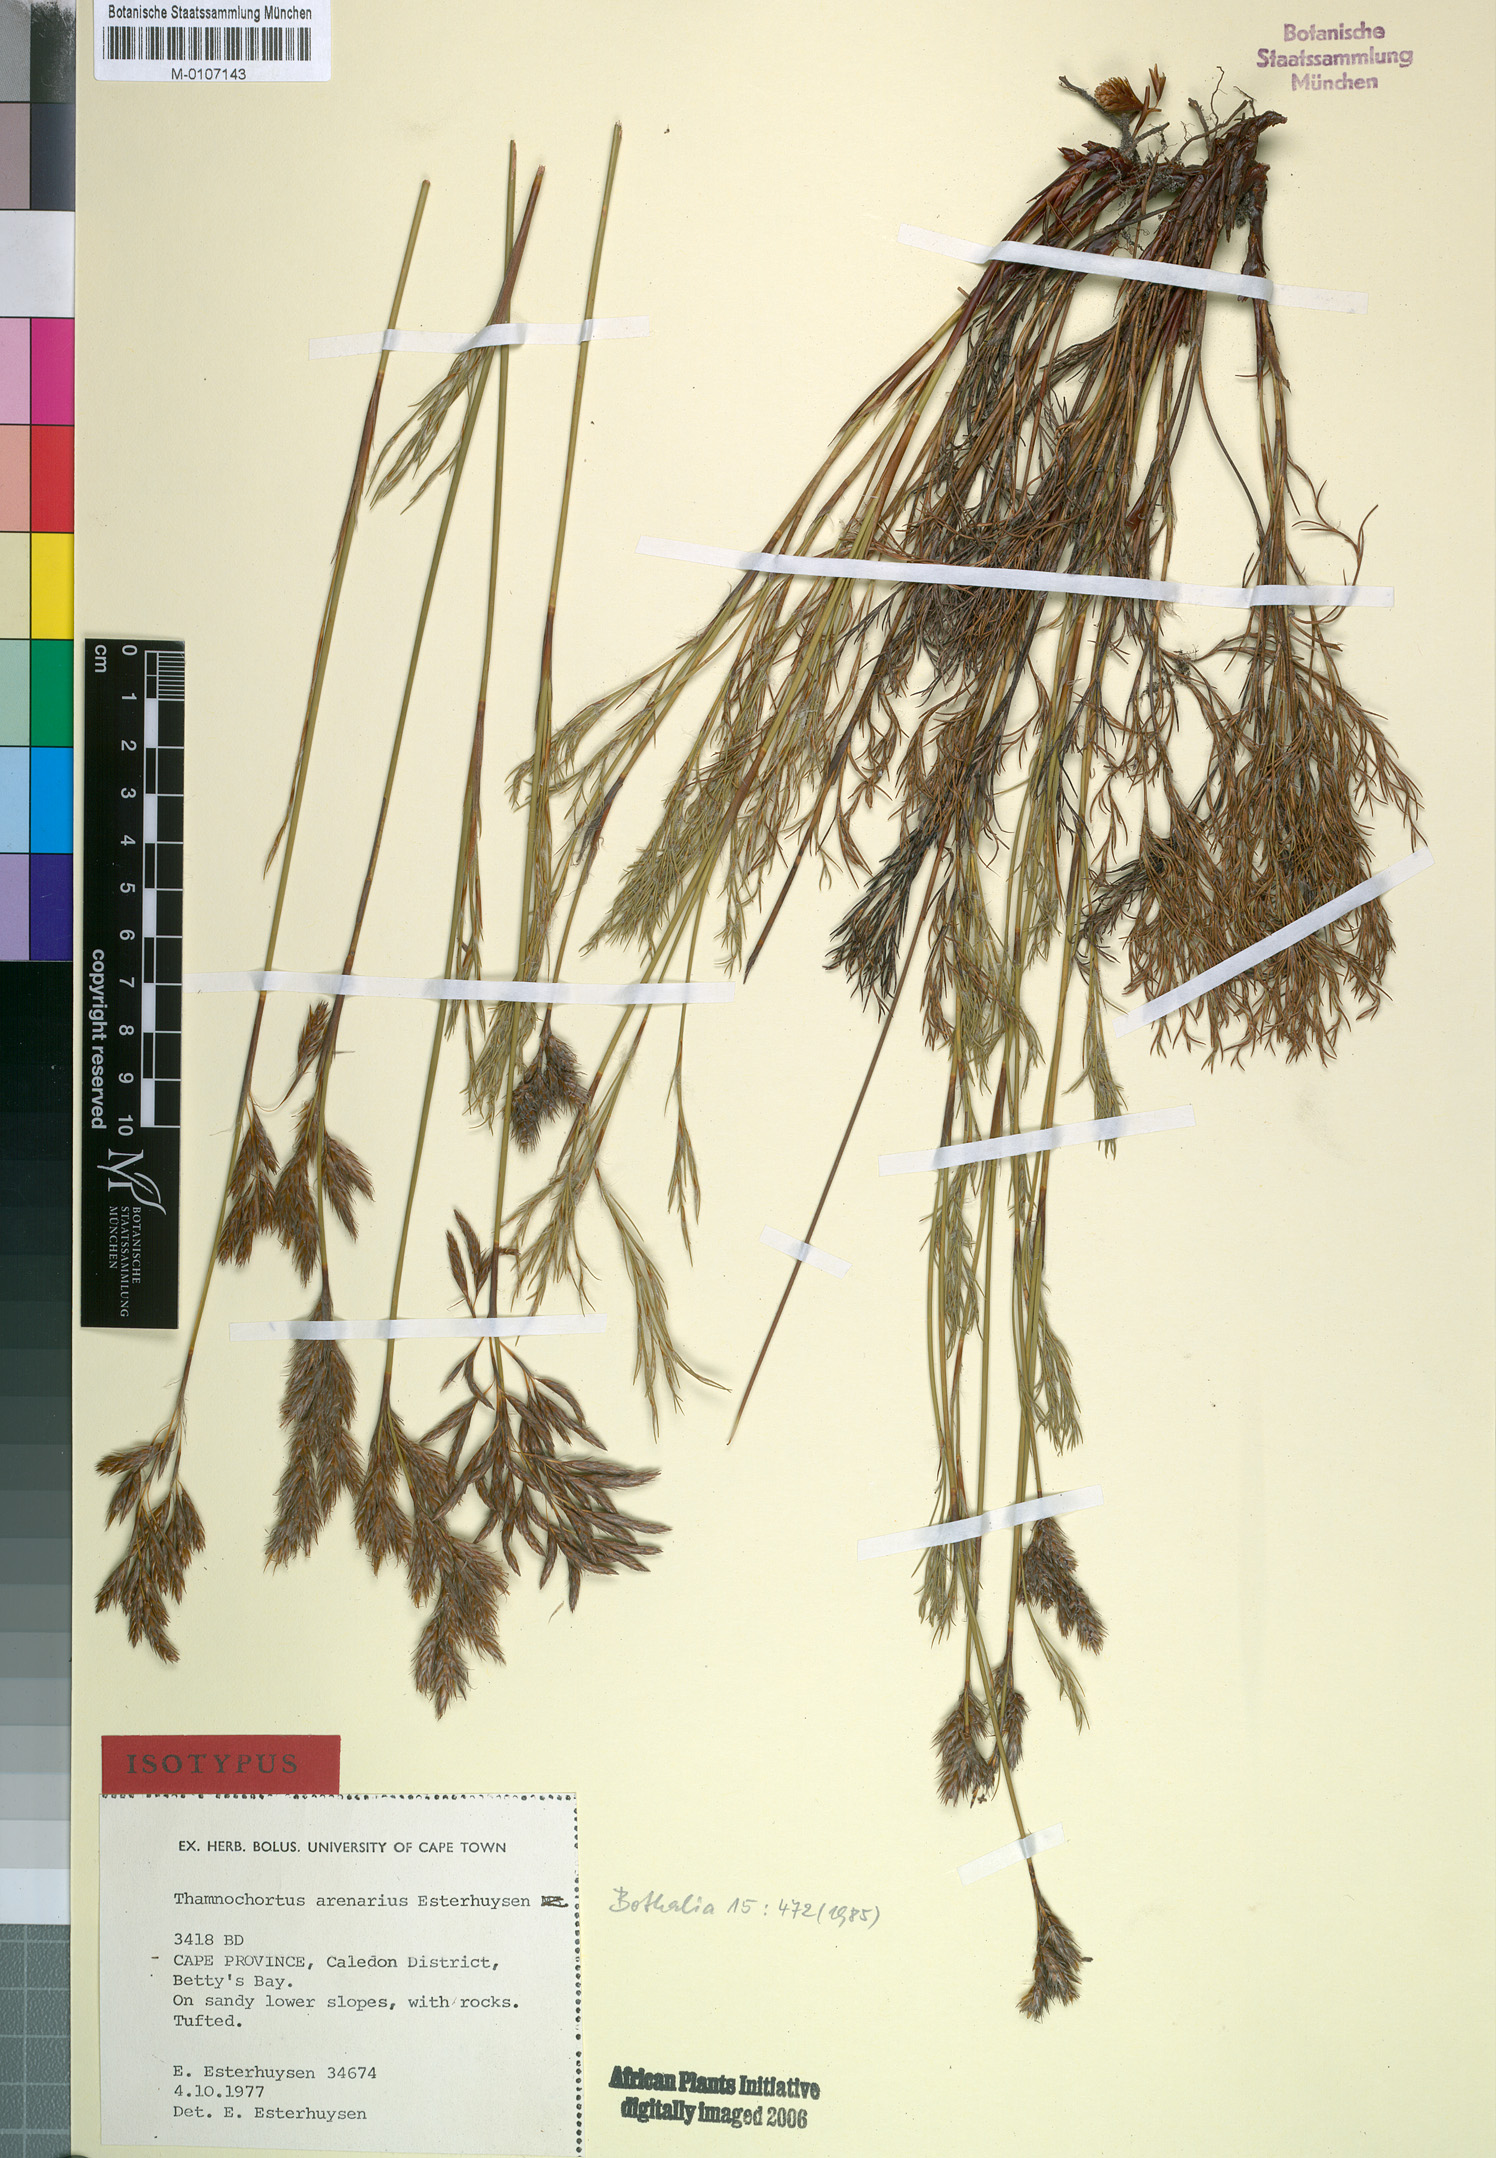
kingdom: Plantae
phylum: Tracheophyta
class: Liliopsida
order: Poales
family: Restionaceae
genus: Thamnochortus
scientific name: Thamnochortus arenarius
